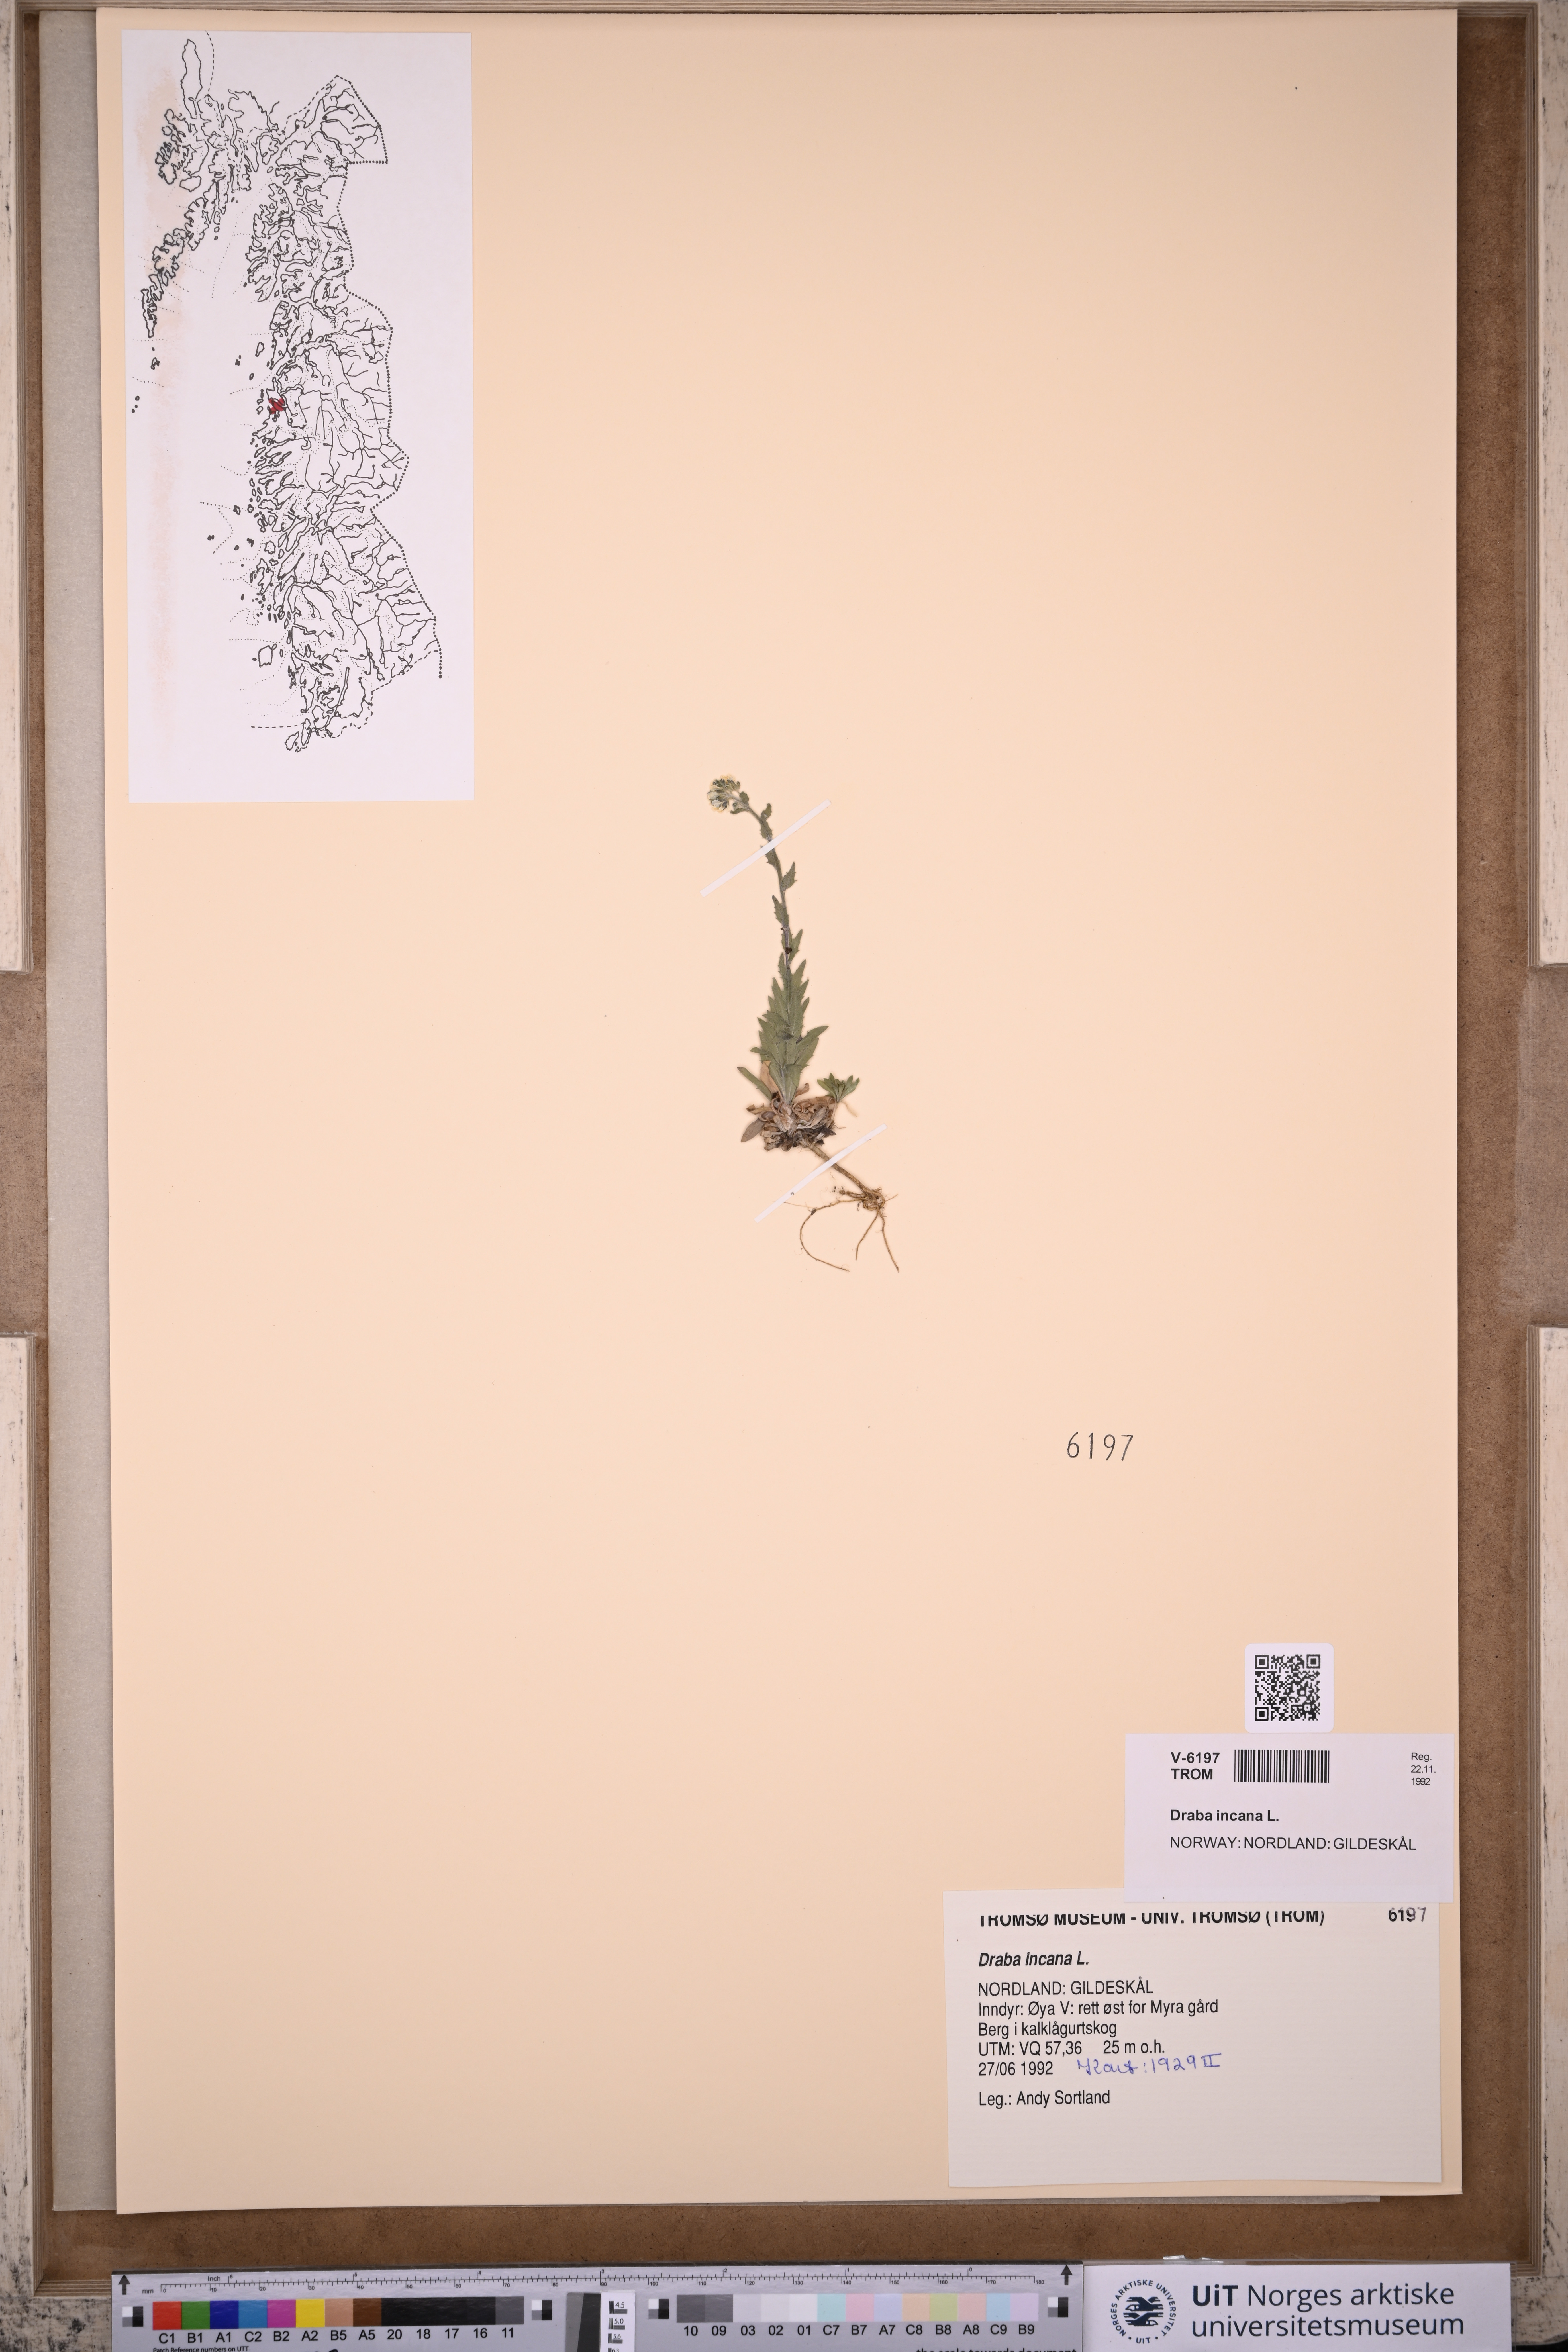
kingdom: Plantae
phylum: Tracheophyta
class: Magnoliopsida
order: Brassicales
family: Brassicaceae
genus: Draba
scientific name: Draba incana
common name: Hoary whitlow-grass
